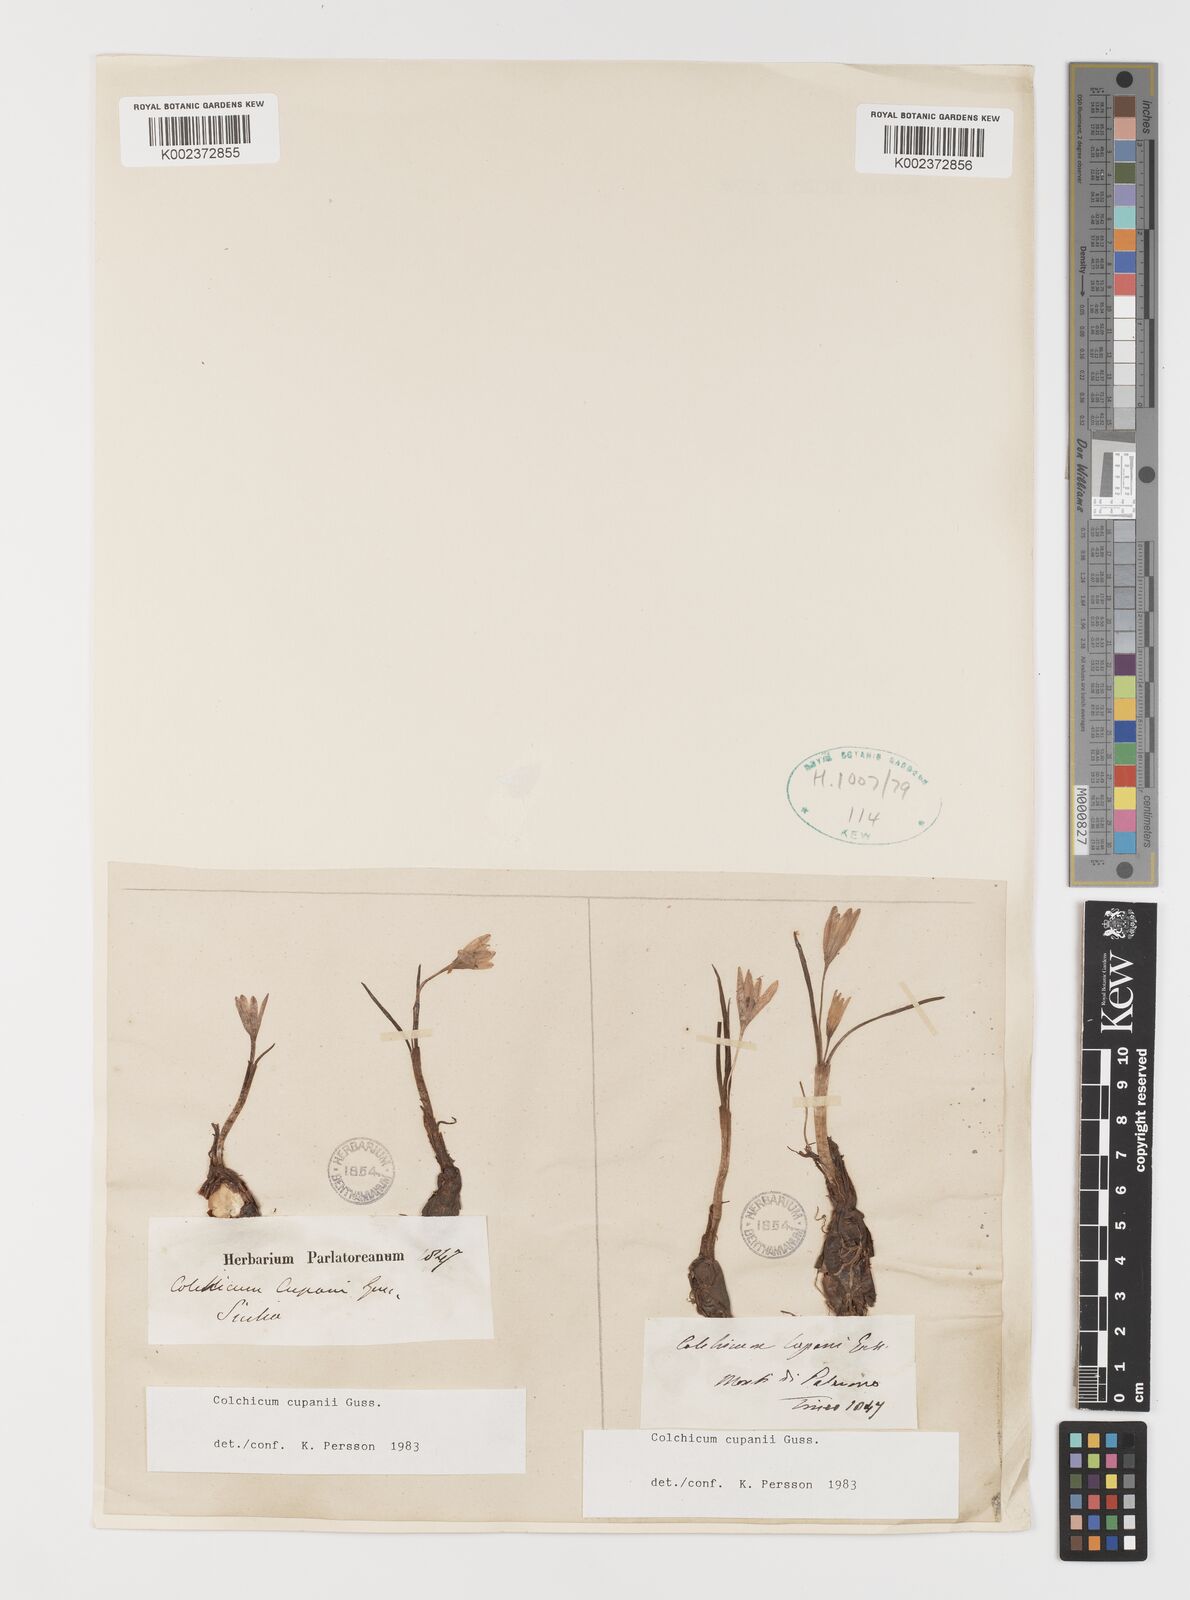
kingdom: Plantae
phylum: Tracheophyta
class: Liliopsida
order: Liliales
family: Colchicaceae
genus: Colchicum
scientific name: Colchicum cupanii
